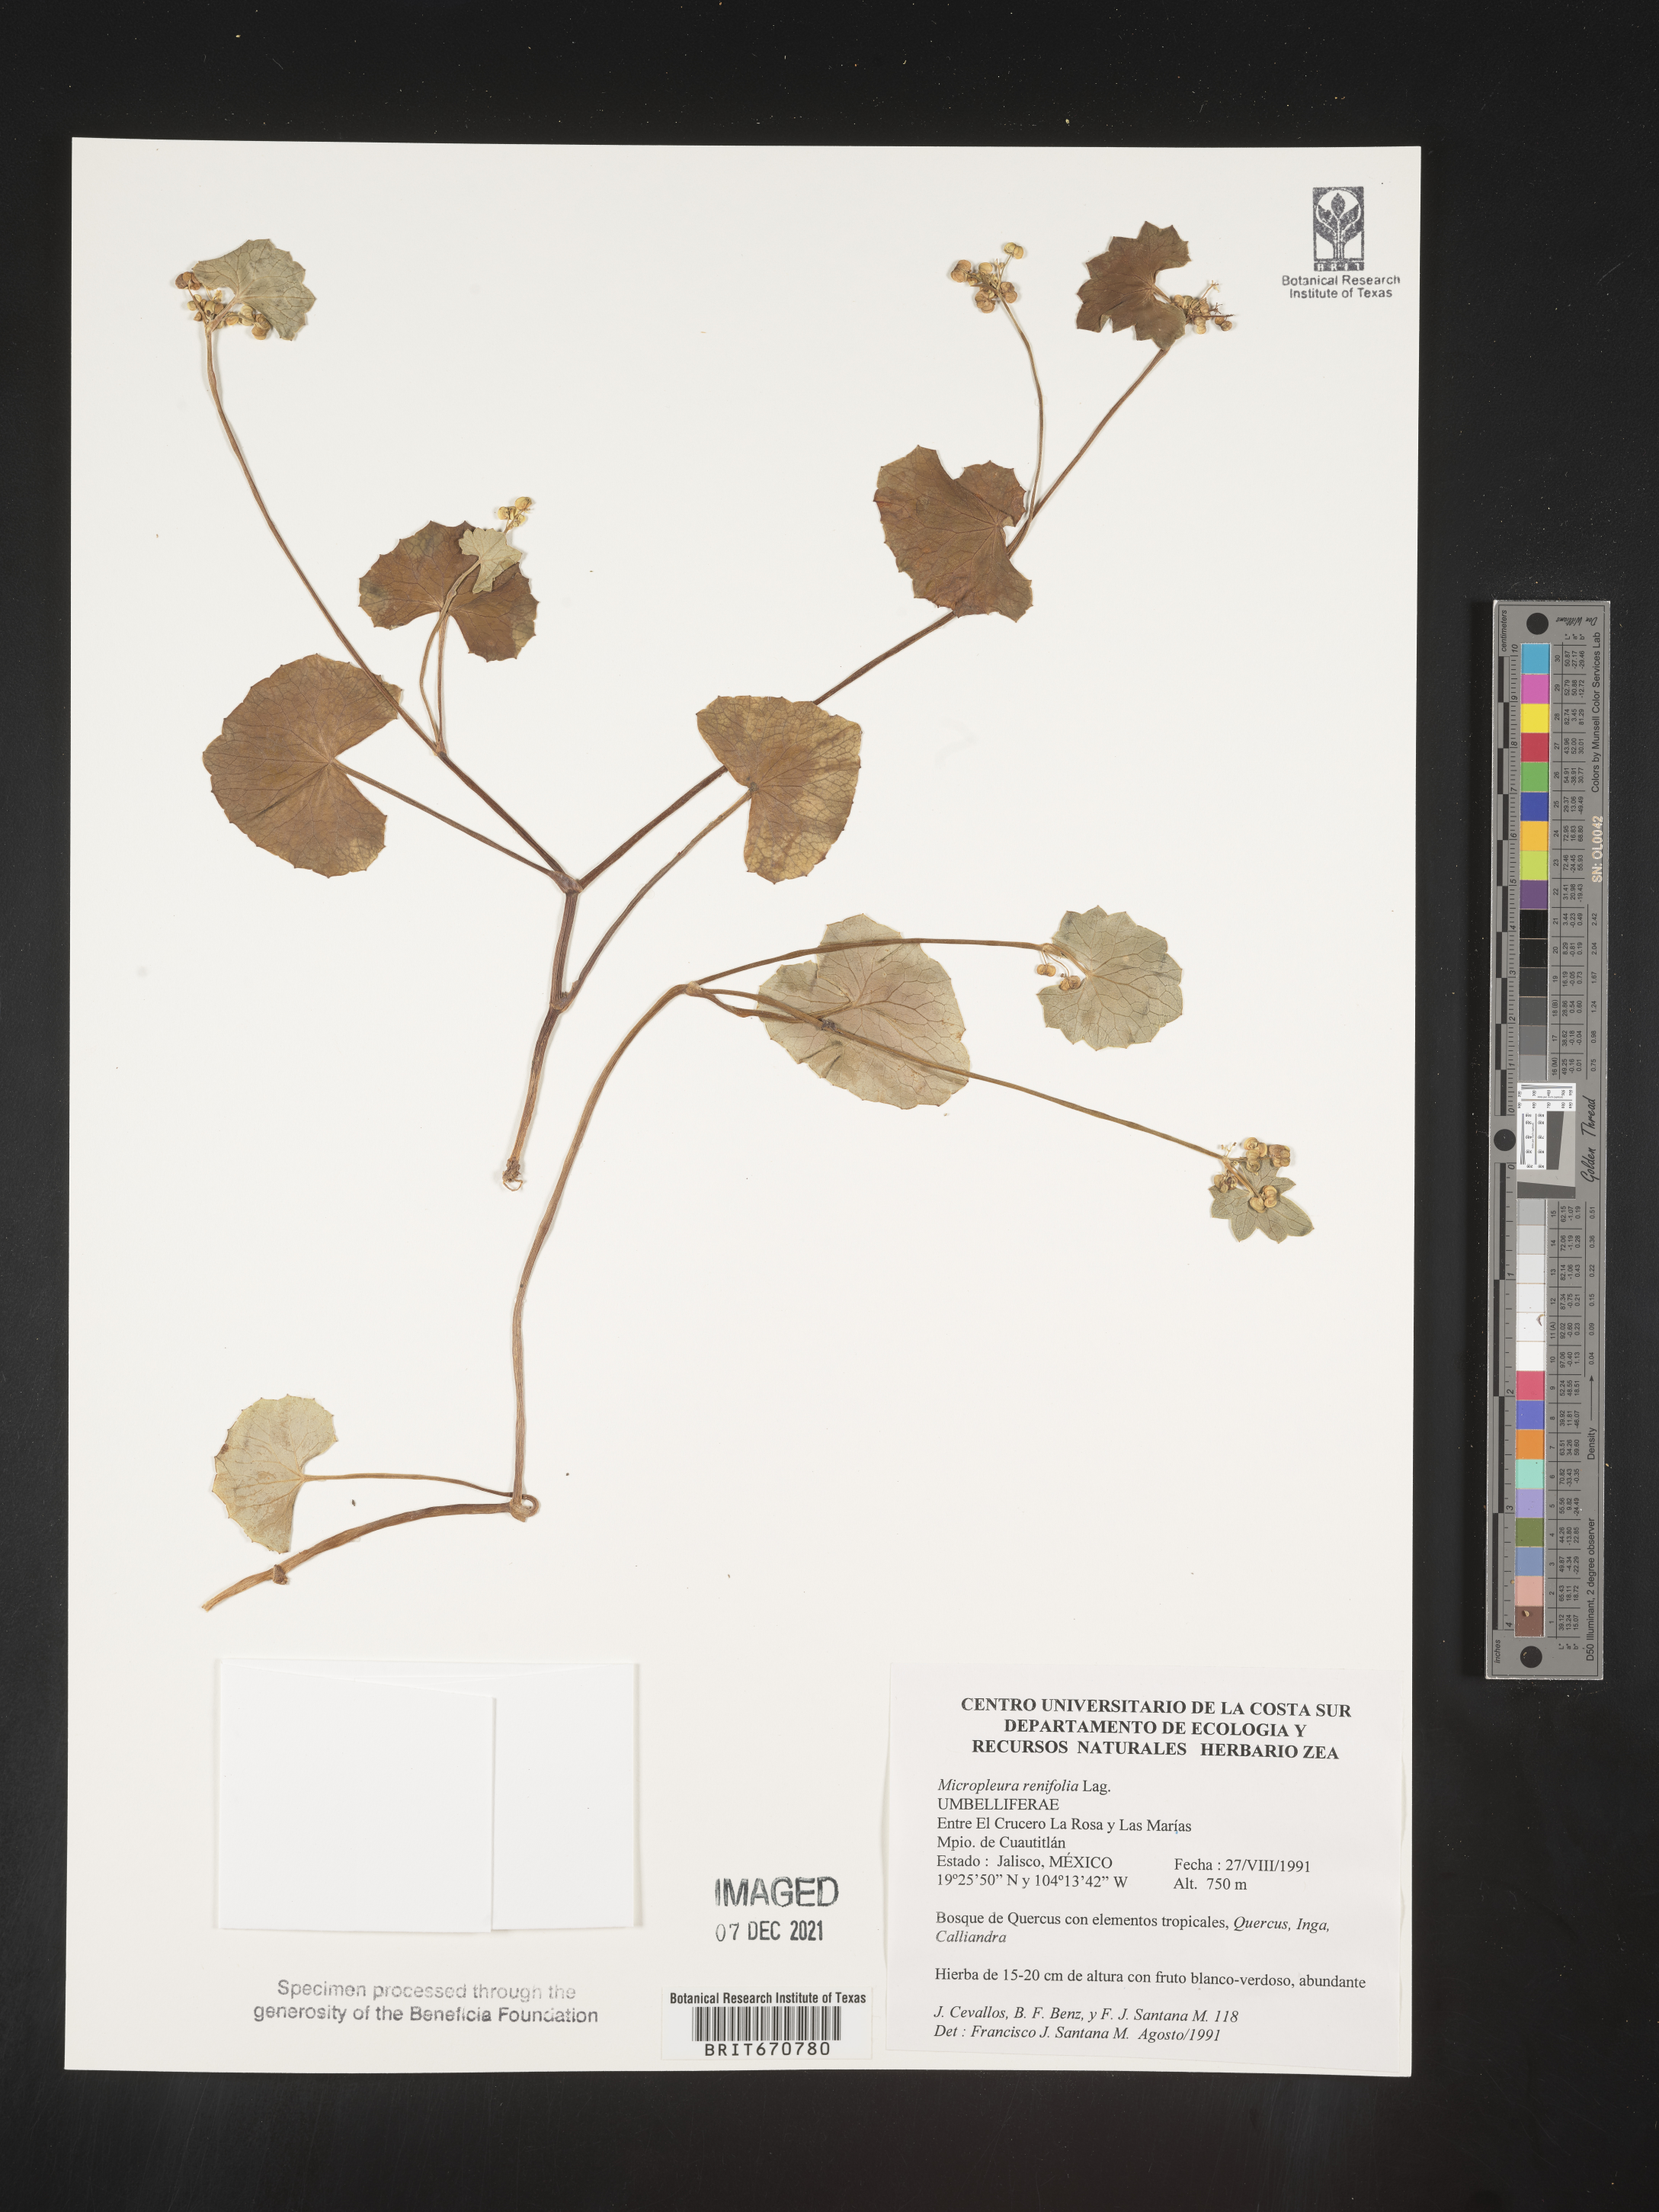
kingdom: Plantae
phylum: Tracheophyta
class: Magnoliopsida
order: Apiales
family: Apiaceae
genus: Micropleura
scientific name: Micropleura
